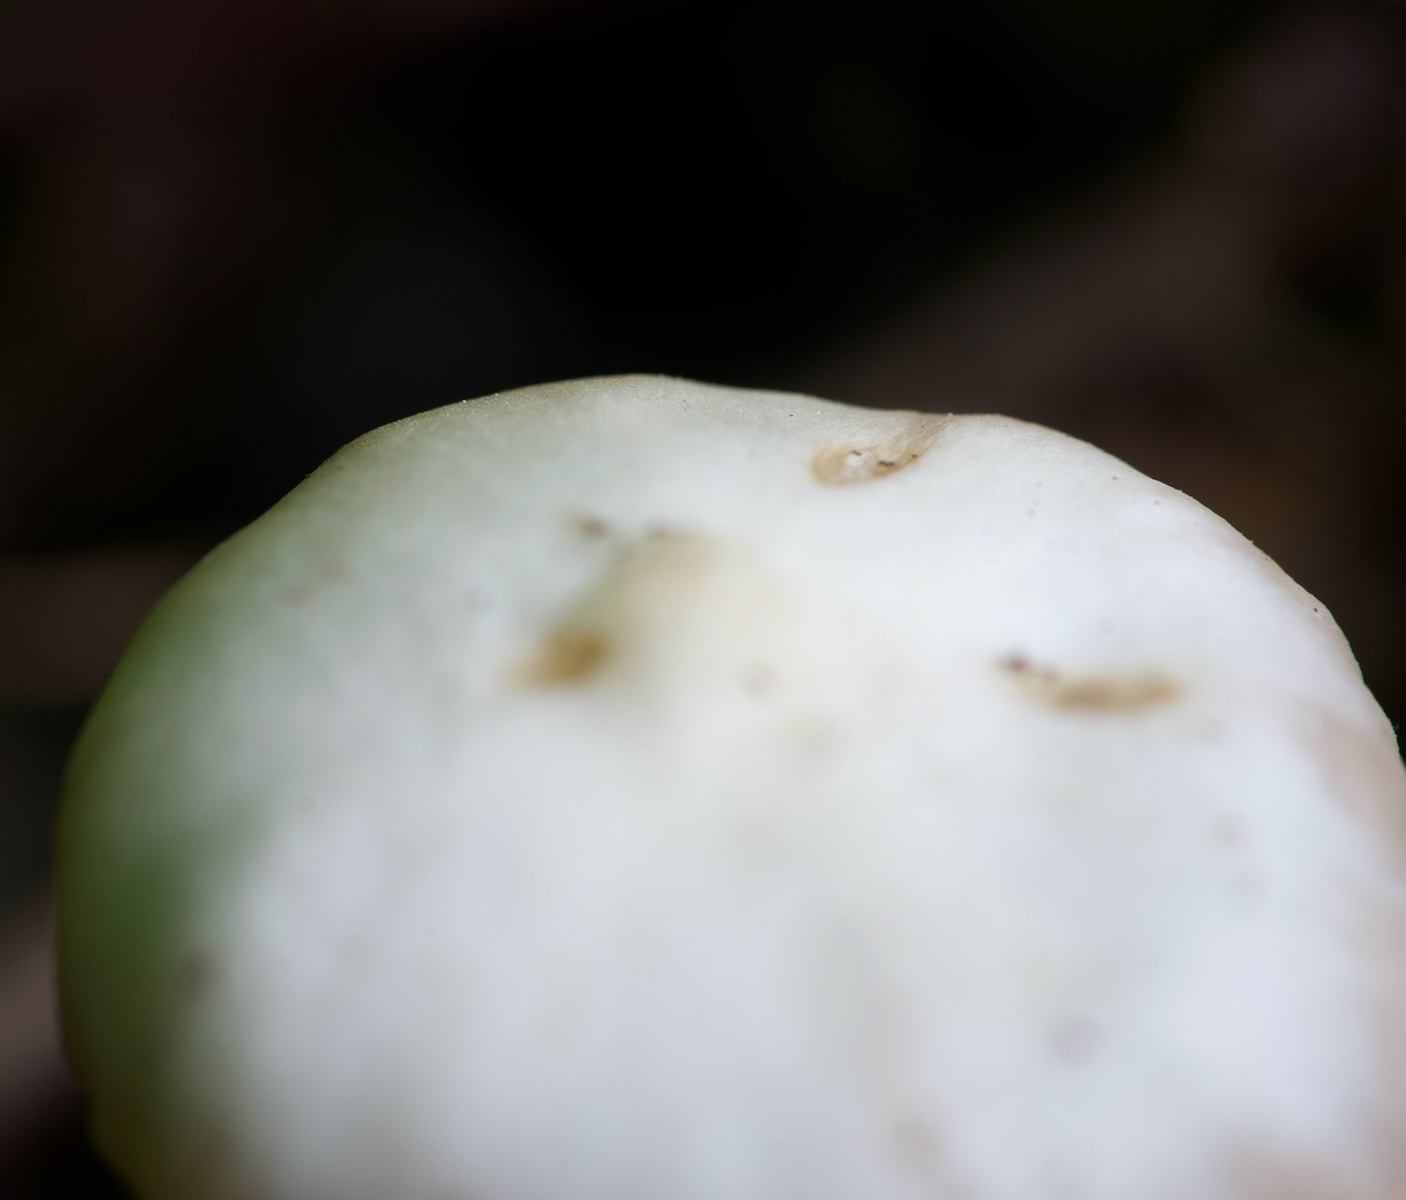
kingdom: Fungi
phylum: Basidiomycota
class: Agaricomycetes
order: Agaricales
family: Entolomataceae
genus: Entoloma
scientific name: Entoloma
